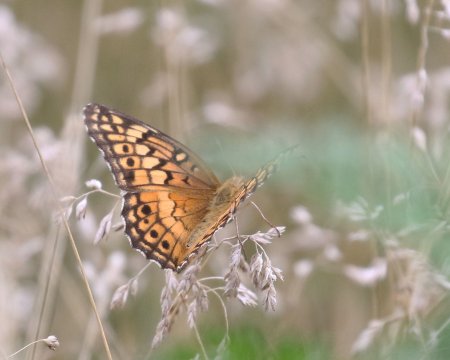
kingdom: Animalia
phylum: Arthropoda
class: Insecta
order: Lepidoptera
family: Nymphalidae
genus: Euptoieta
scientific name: Euptoieta claudia
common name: Variegated Fritillary
